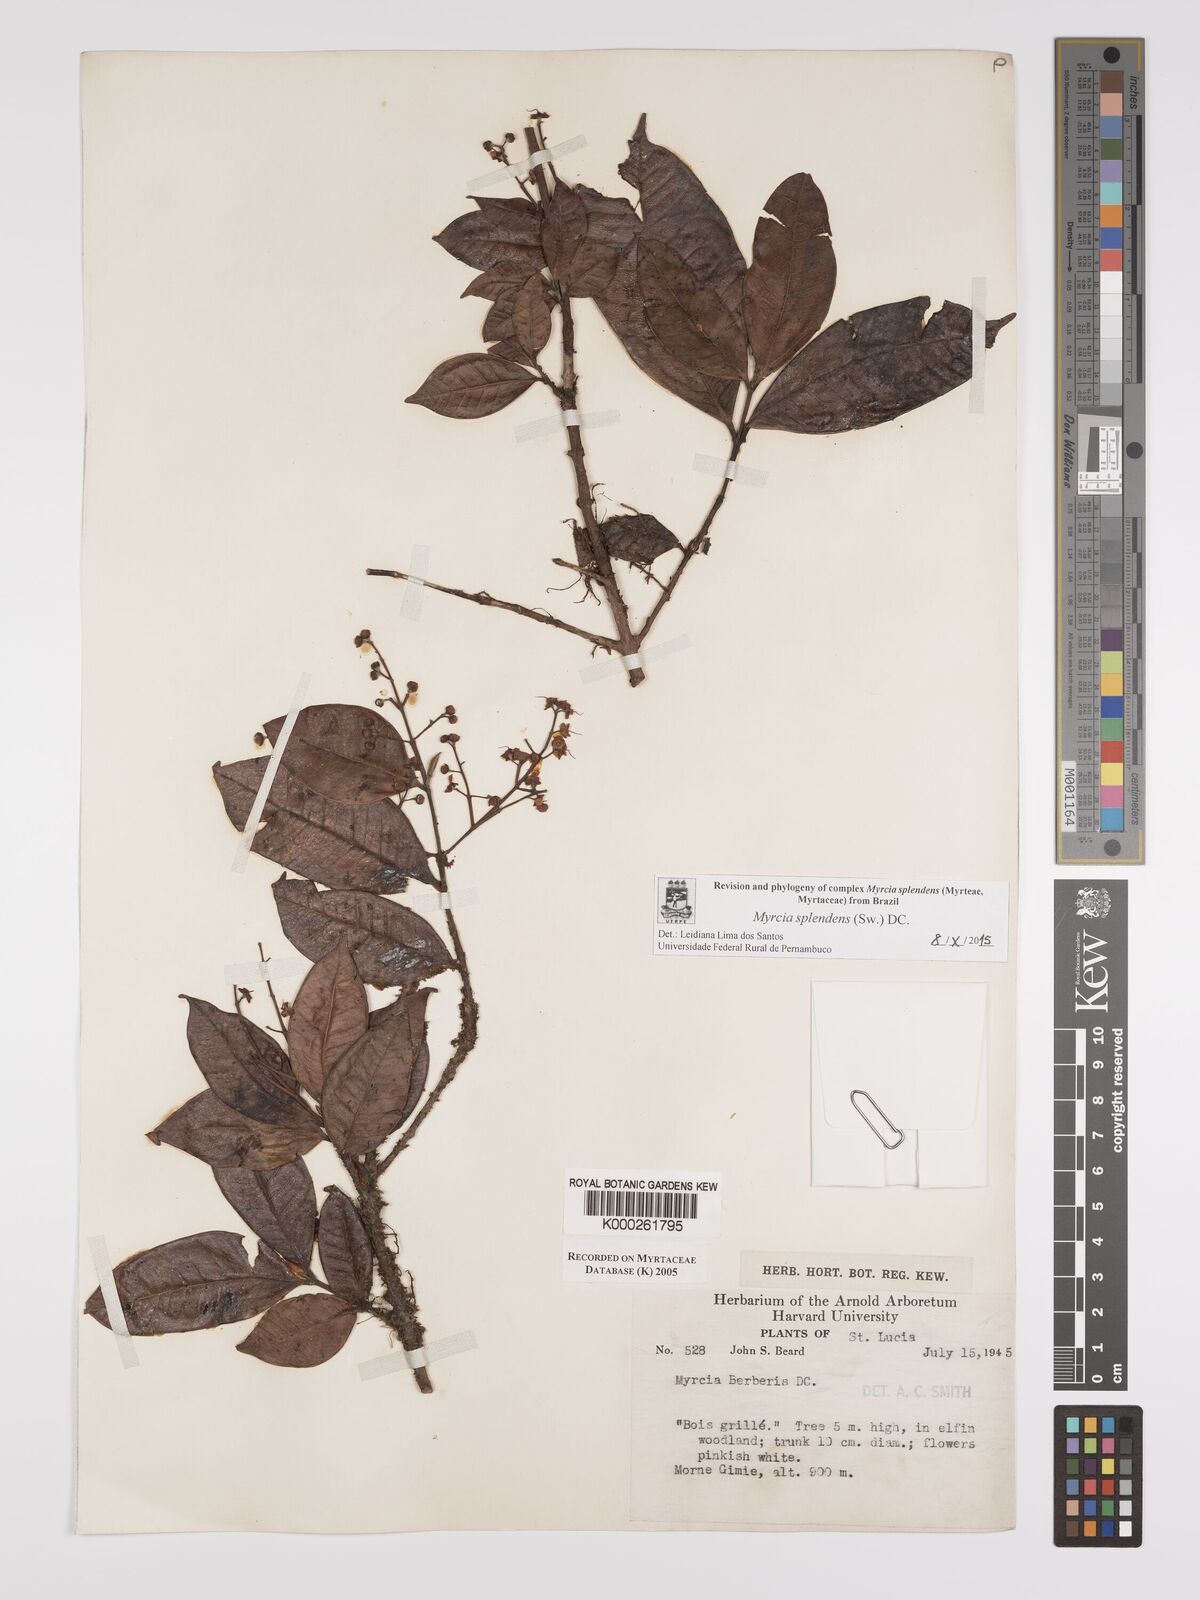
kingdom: Plantae
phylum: Tracheophyta
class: Magnoliopsida
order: Myrtales
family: Myrtaceae
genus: Myrcia
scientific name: Myrcia splendens
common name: Surinam cherry
